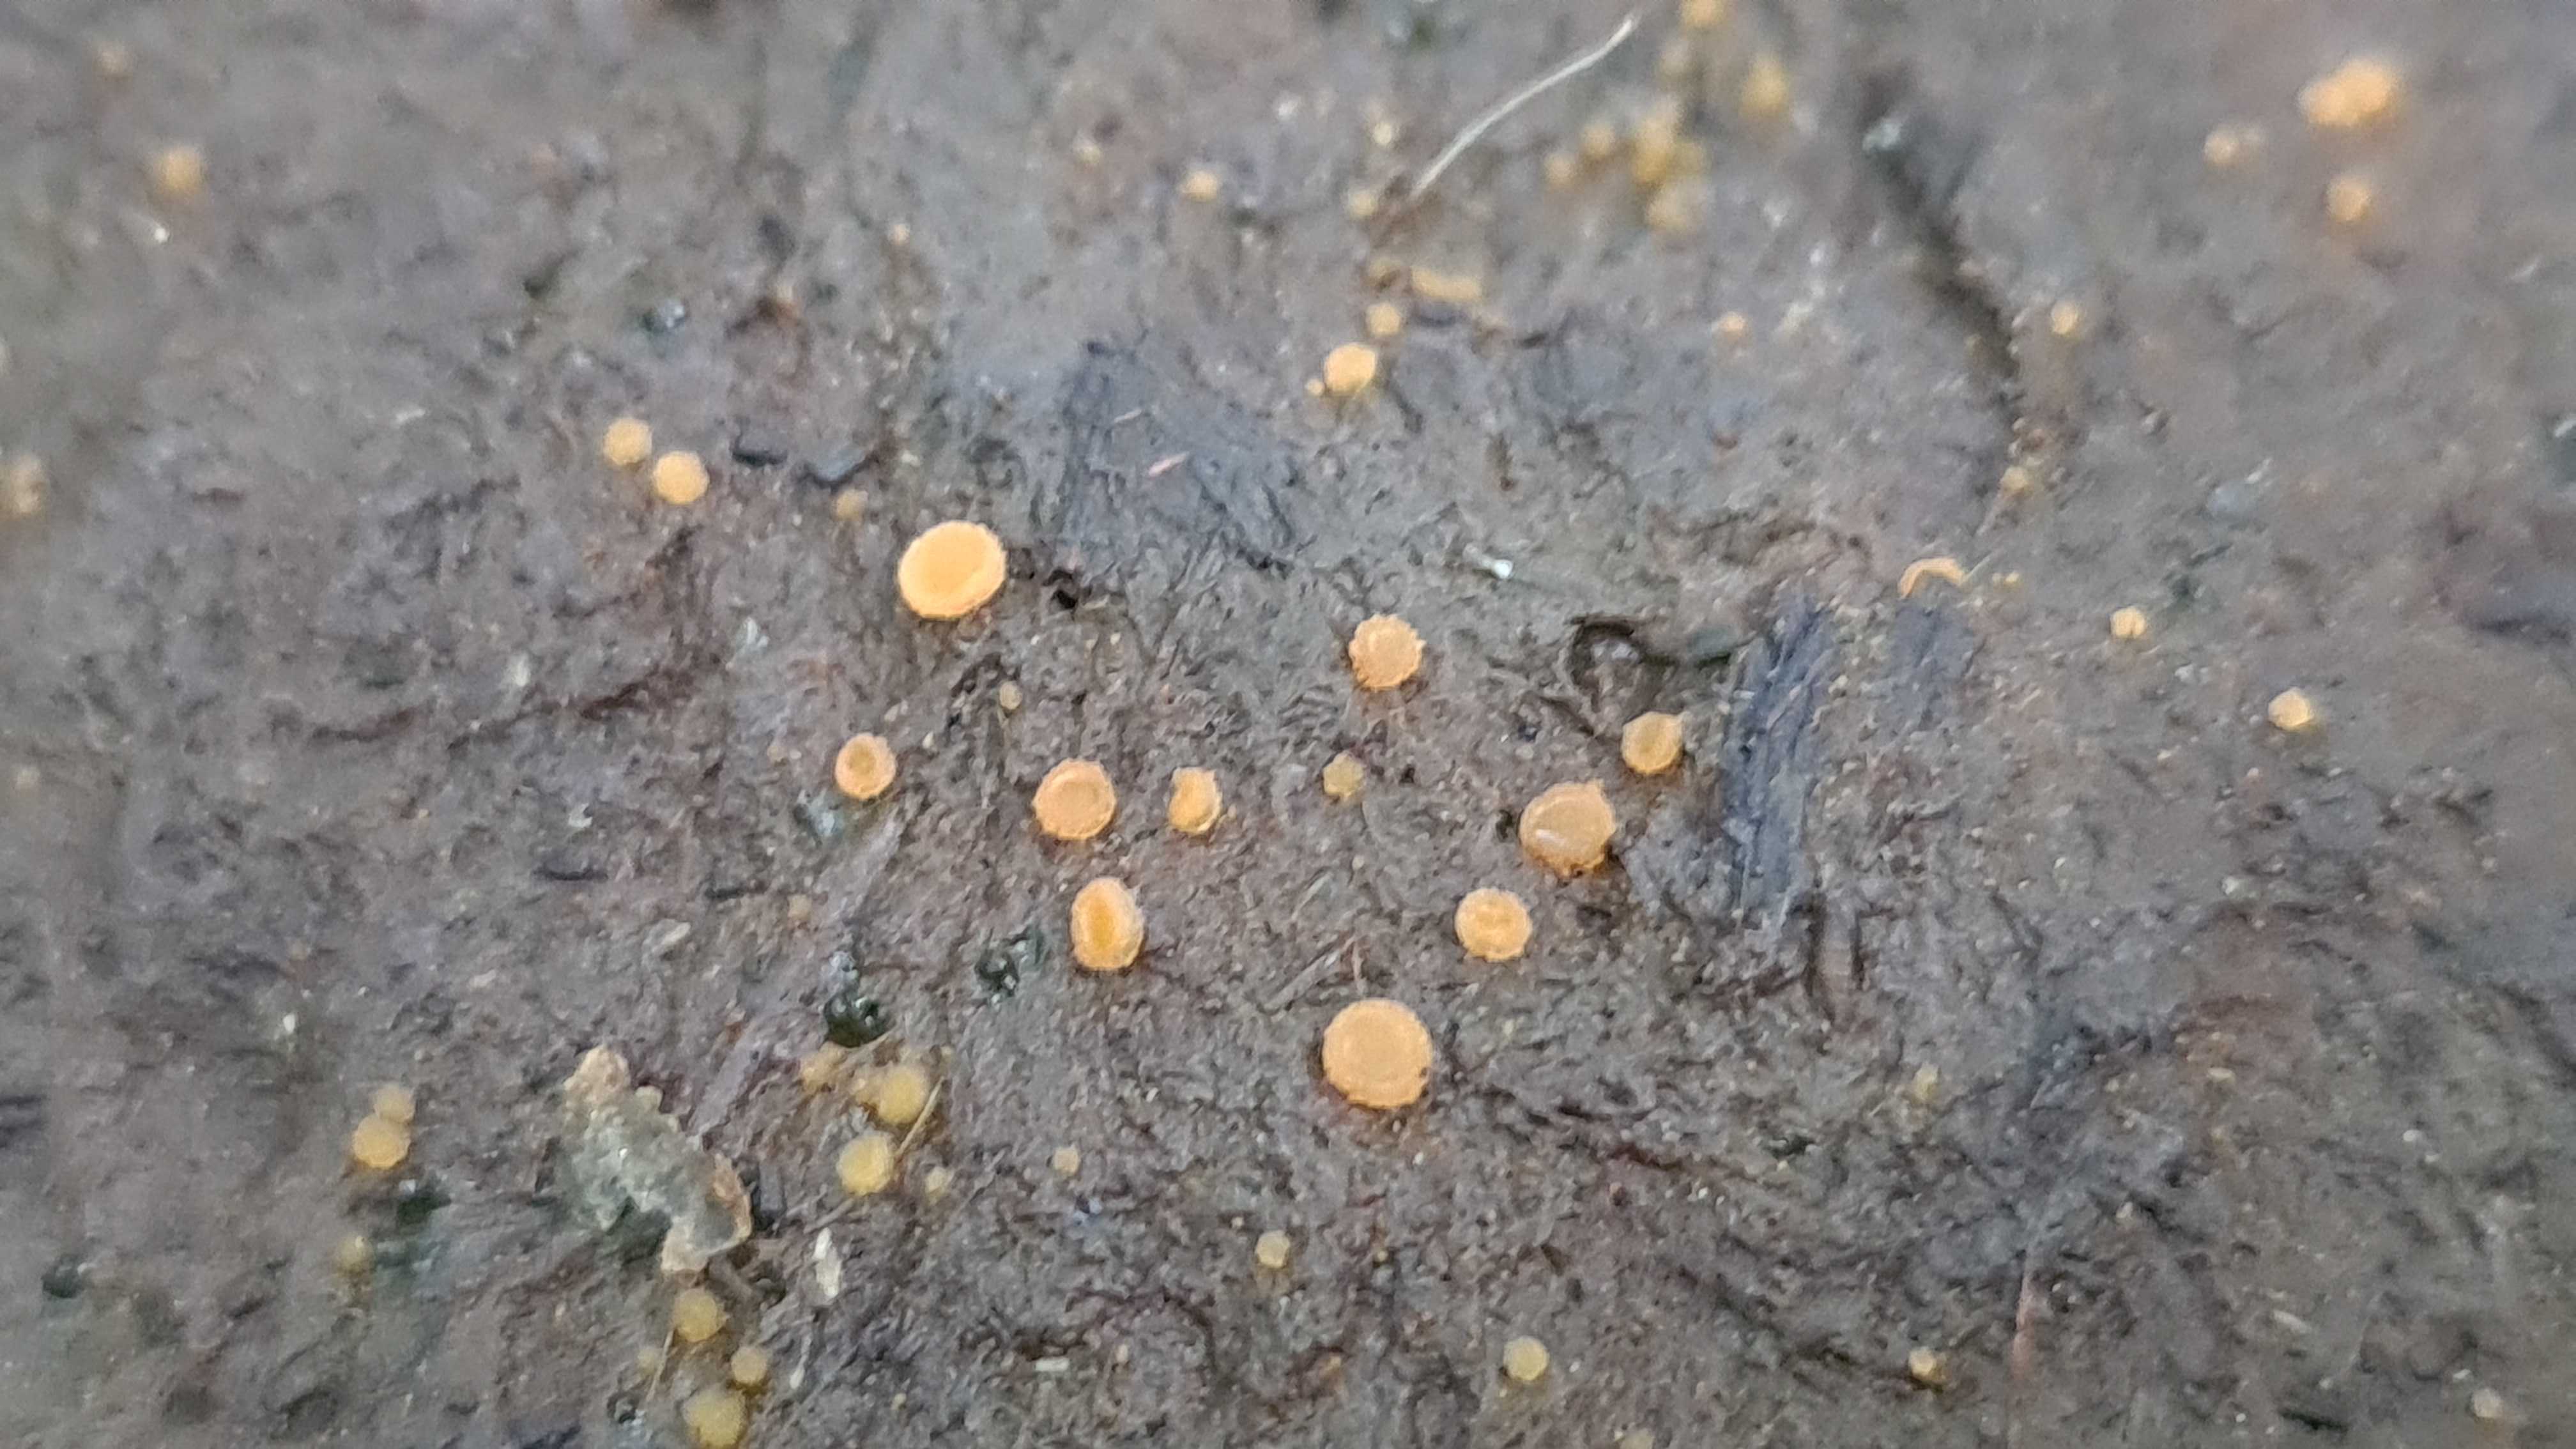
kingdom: Fungi
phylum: Ascomycota
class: Pezizomycetes
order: Pezizales
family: Pyronemataceae
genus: Cheilymenia
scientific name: Cheilymenia granulata
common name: møgbæger
